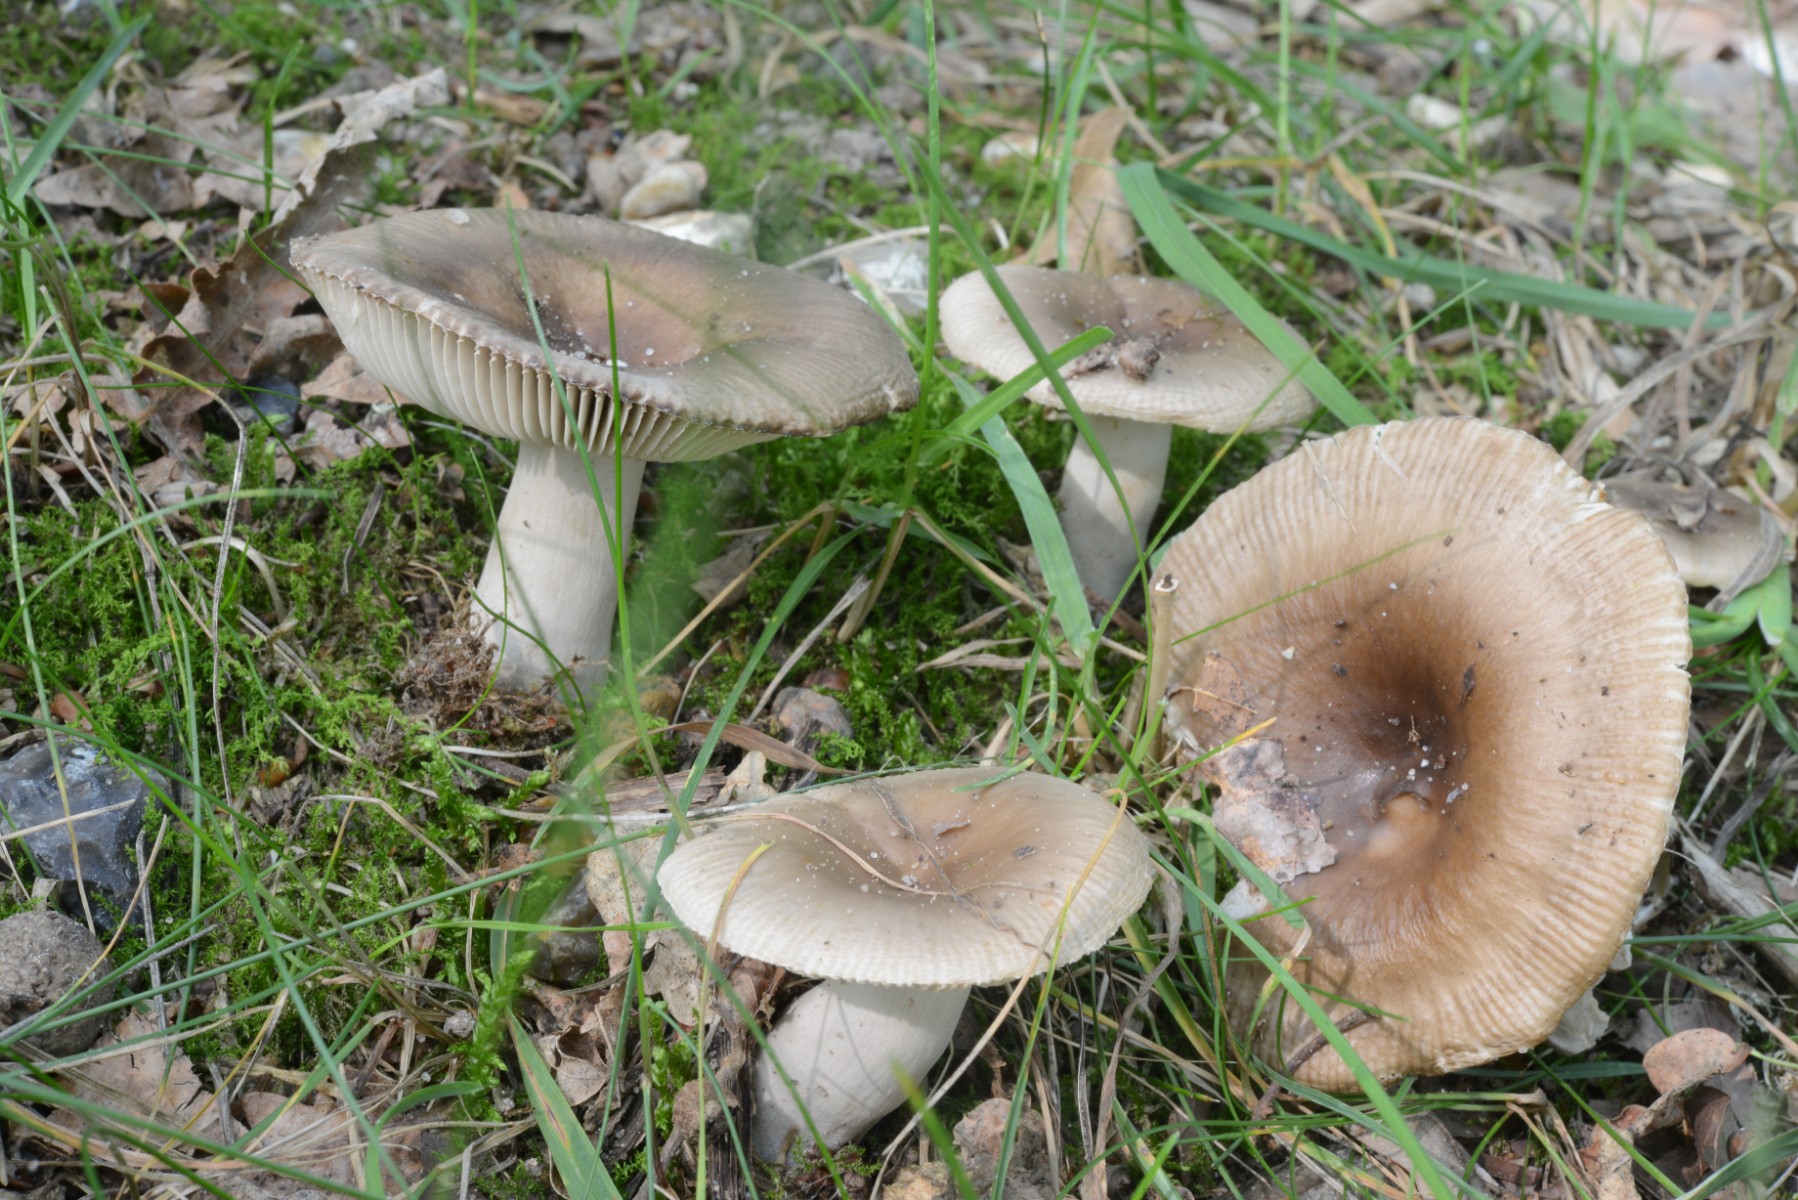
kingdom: Fungi
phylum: Basidiomycota
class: Agaricomycetes
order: Russulales
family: Russulaceae
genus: Russula
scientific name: Russula amoenolens
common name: skarp kam-skørhat
